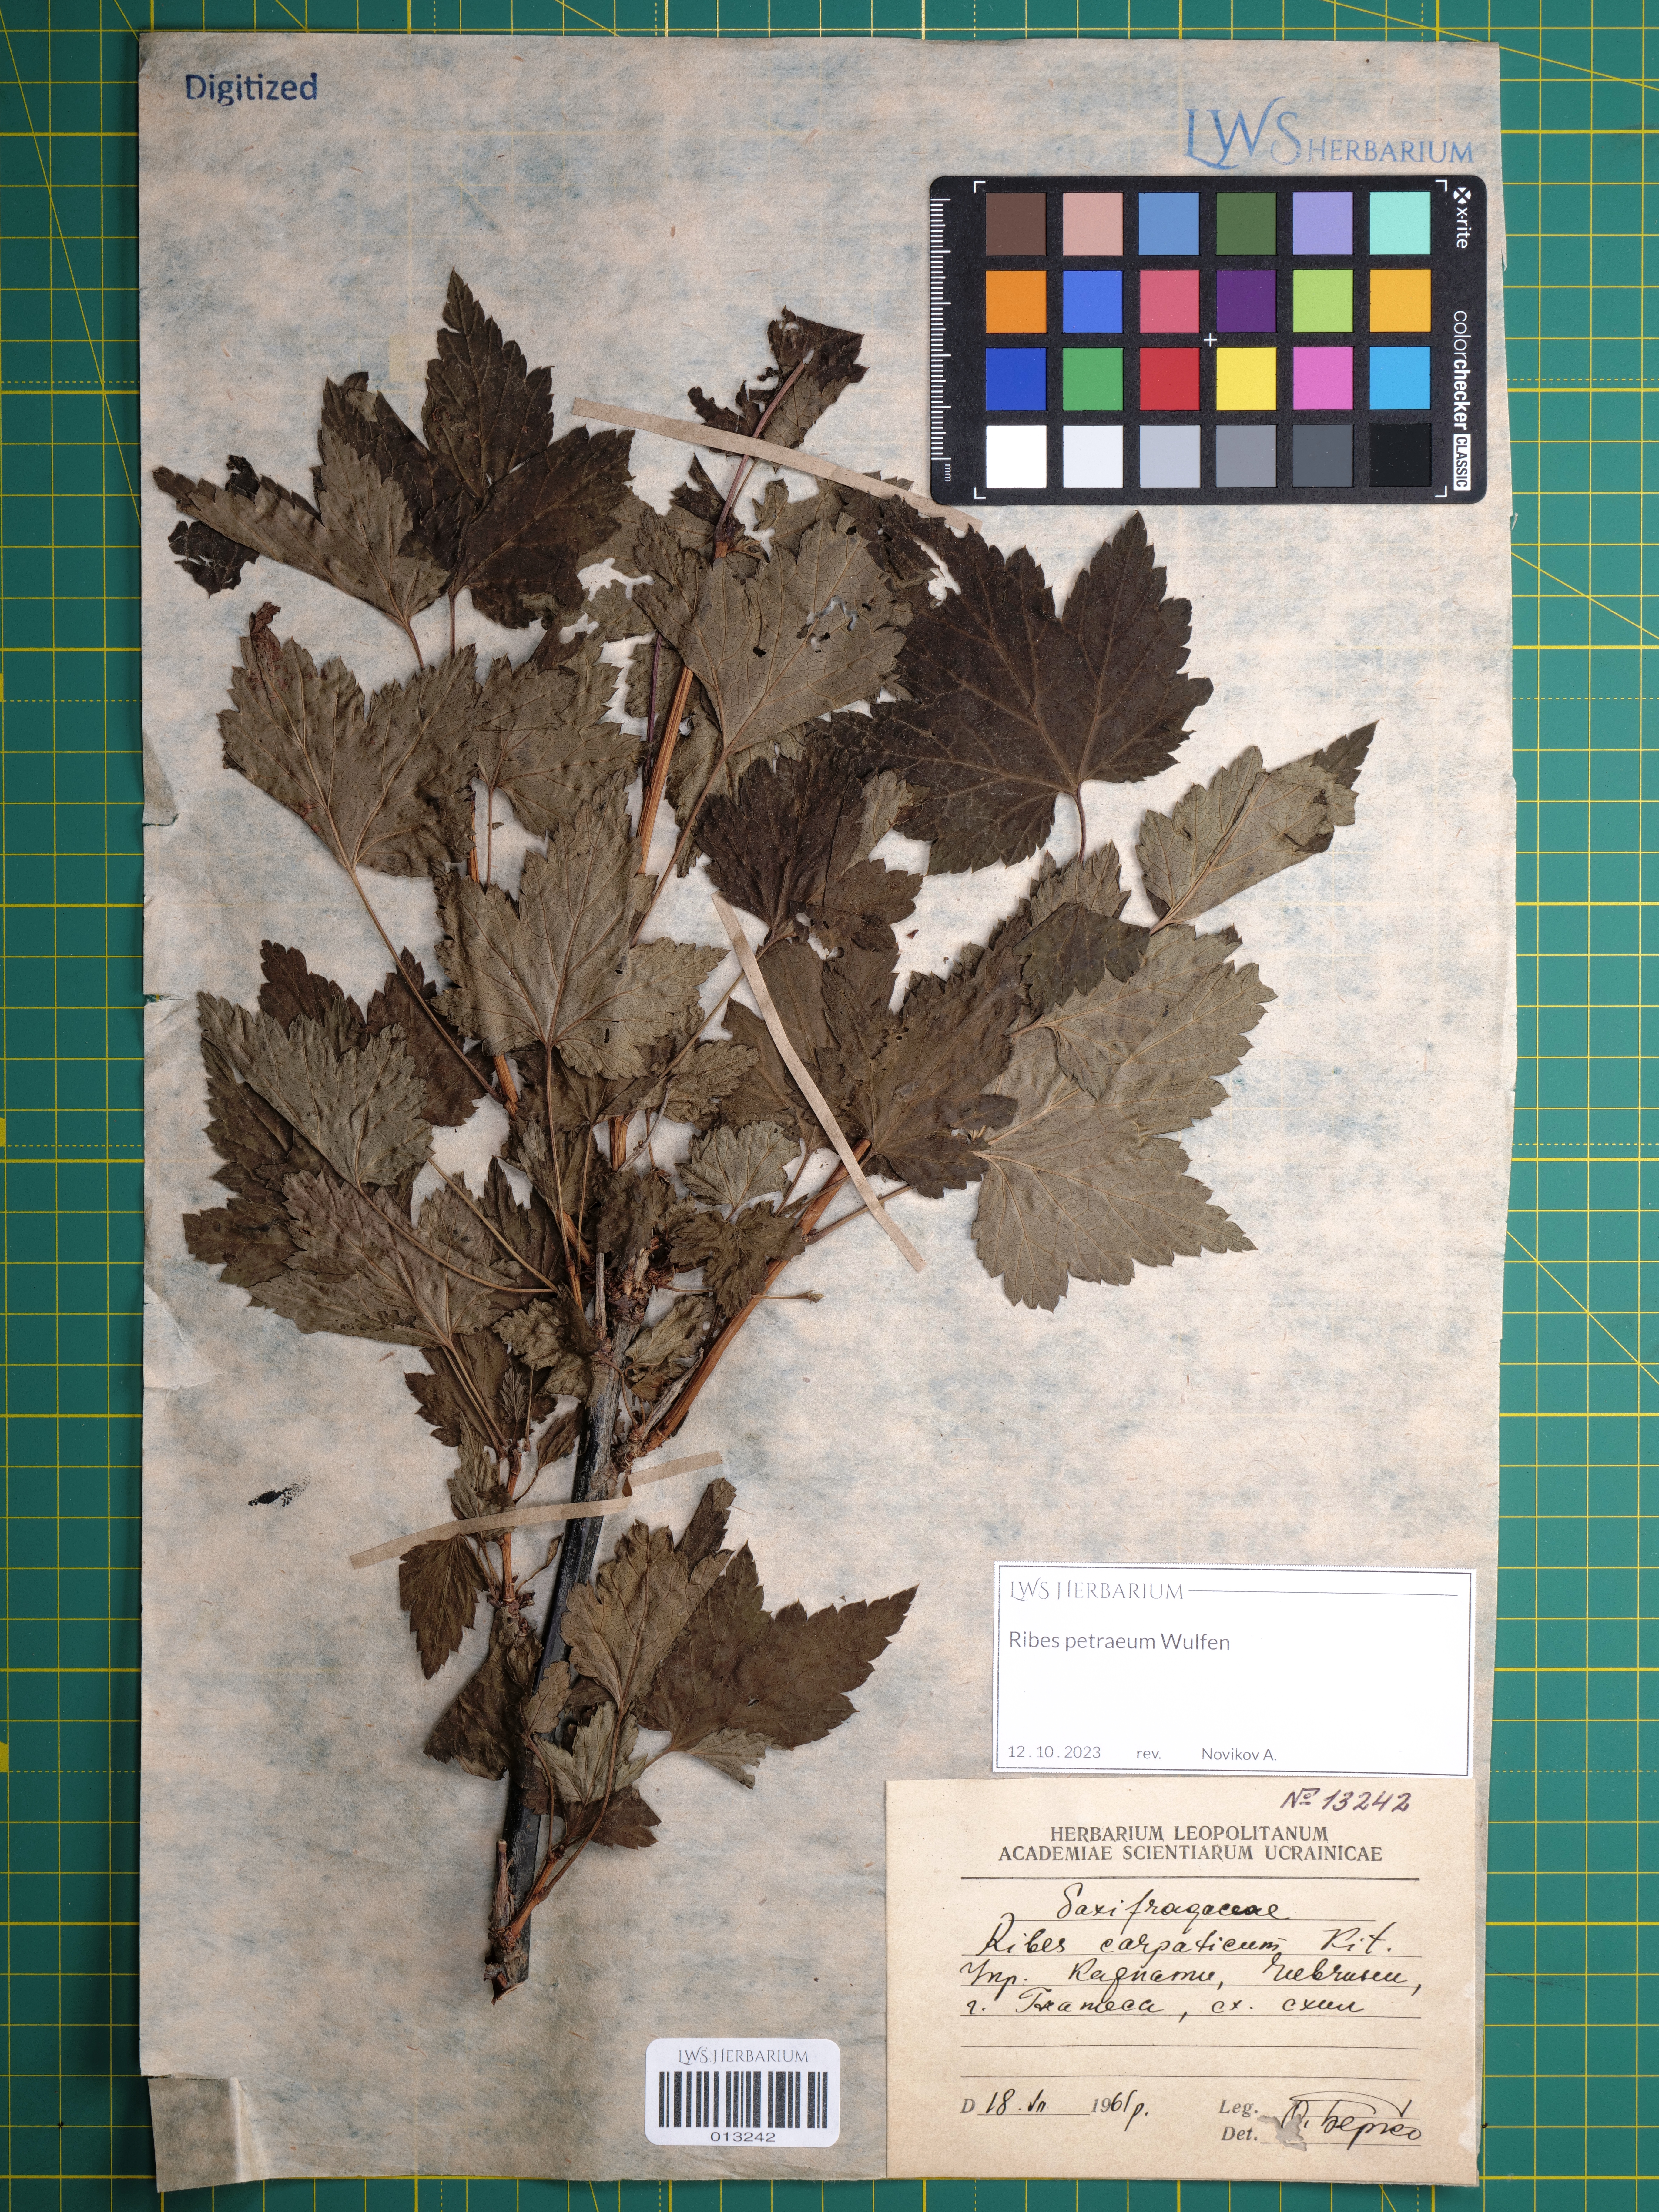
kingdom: Plantae
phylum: Tracheophyta
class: Magnoliopsida
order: Saxifragales
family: Grossulariaceae
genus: Ribes
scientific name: Ribes petraeum
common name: Rock currant
